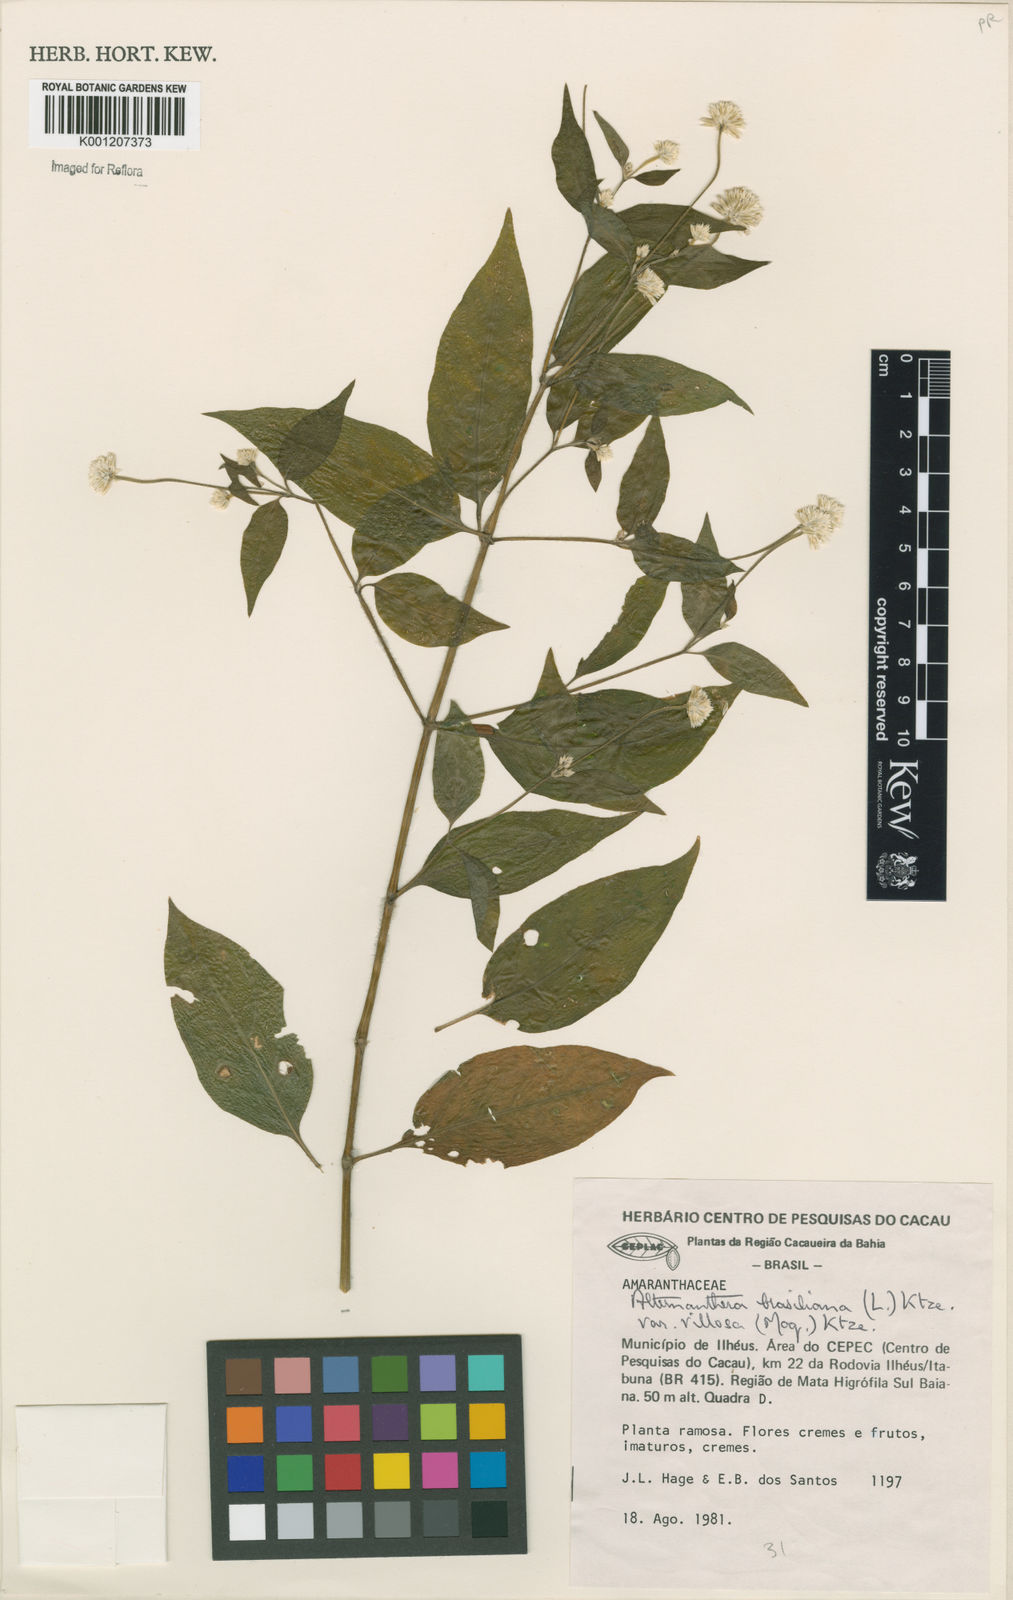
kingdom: Plantae
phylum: Tracheophyta
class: Magnoliopsida
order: Caryophyllales
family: Amaranthaceae
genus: Alternanthera
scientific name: Alternanthera ramosissima
